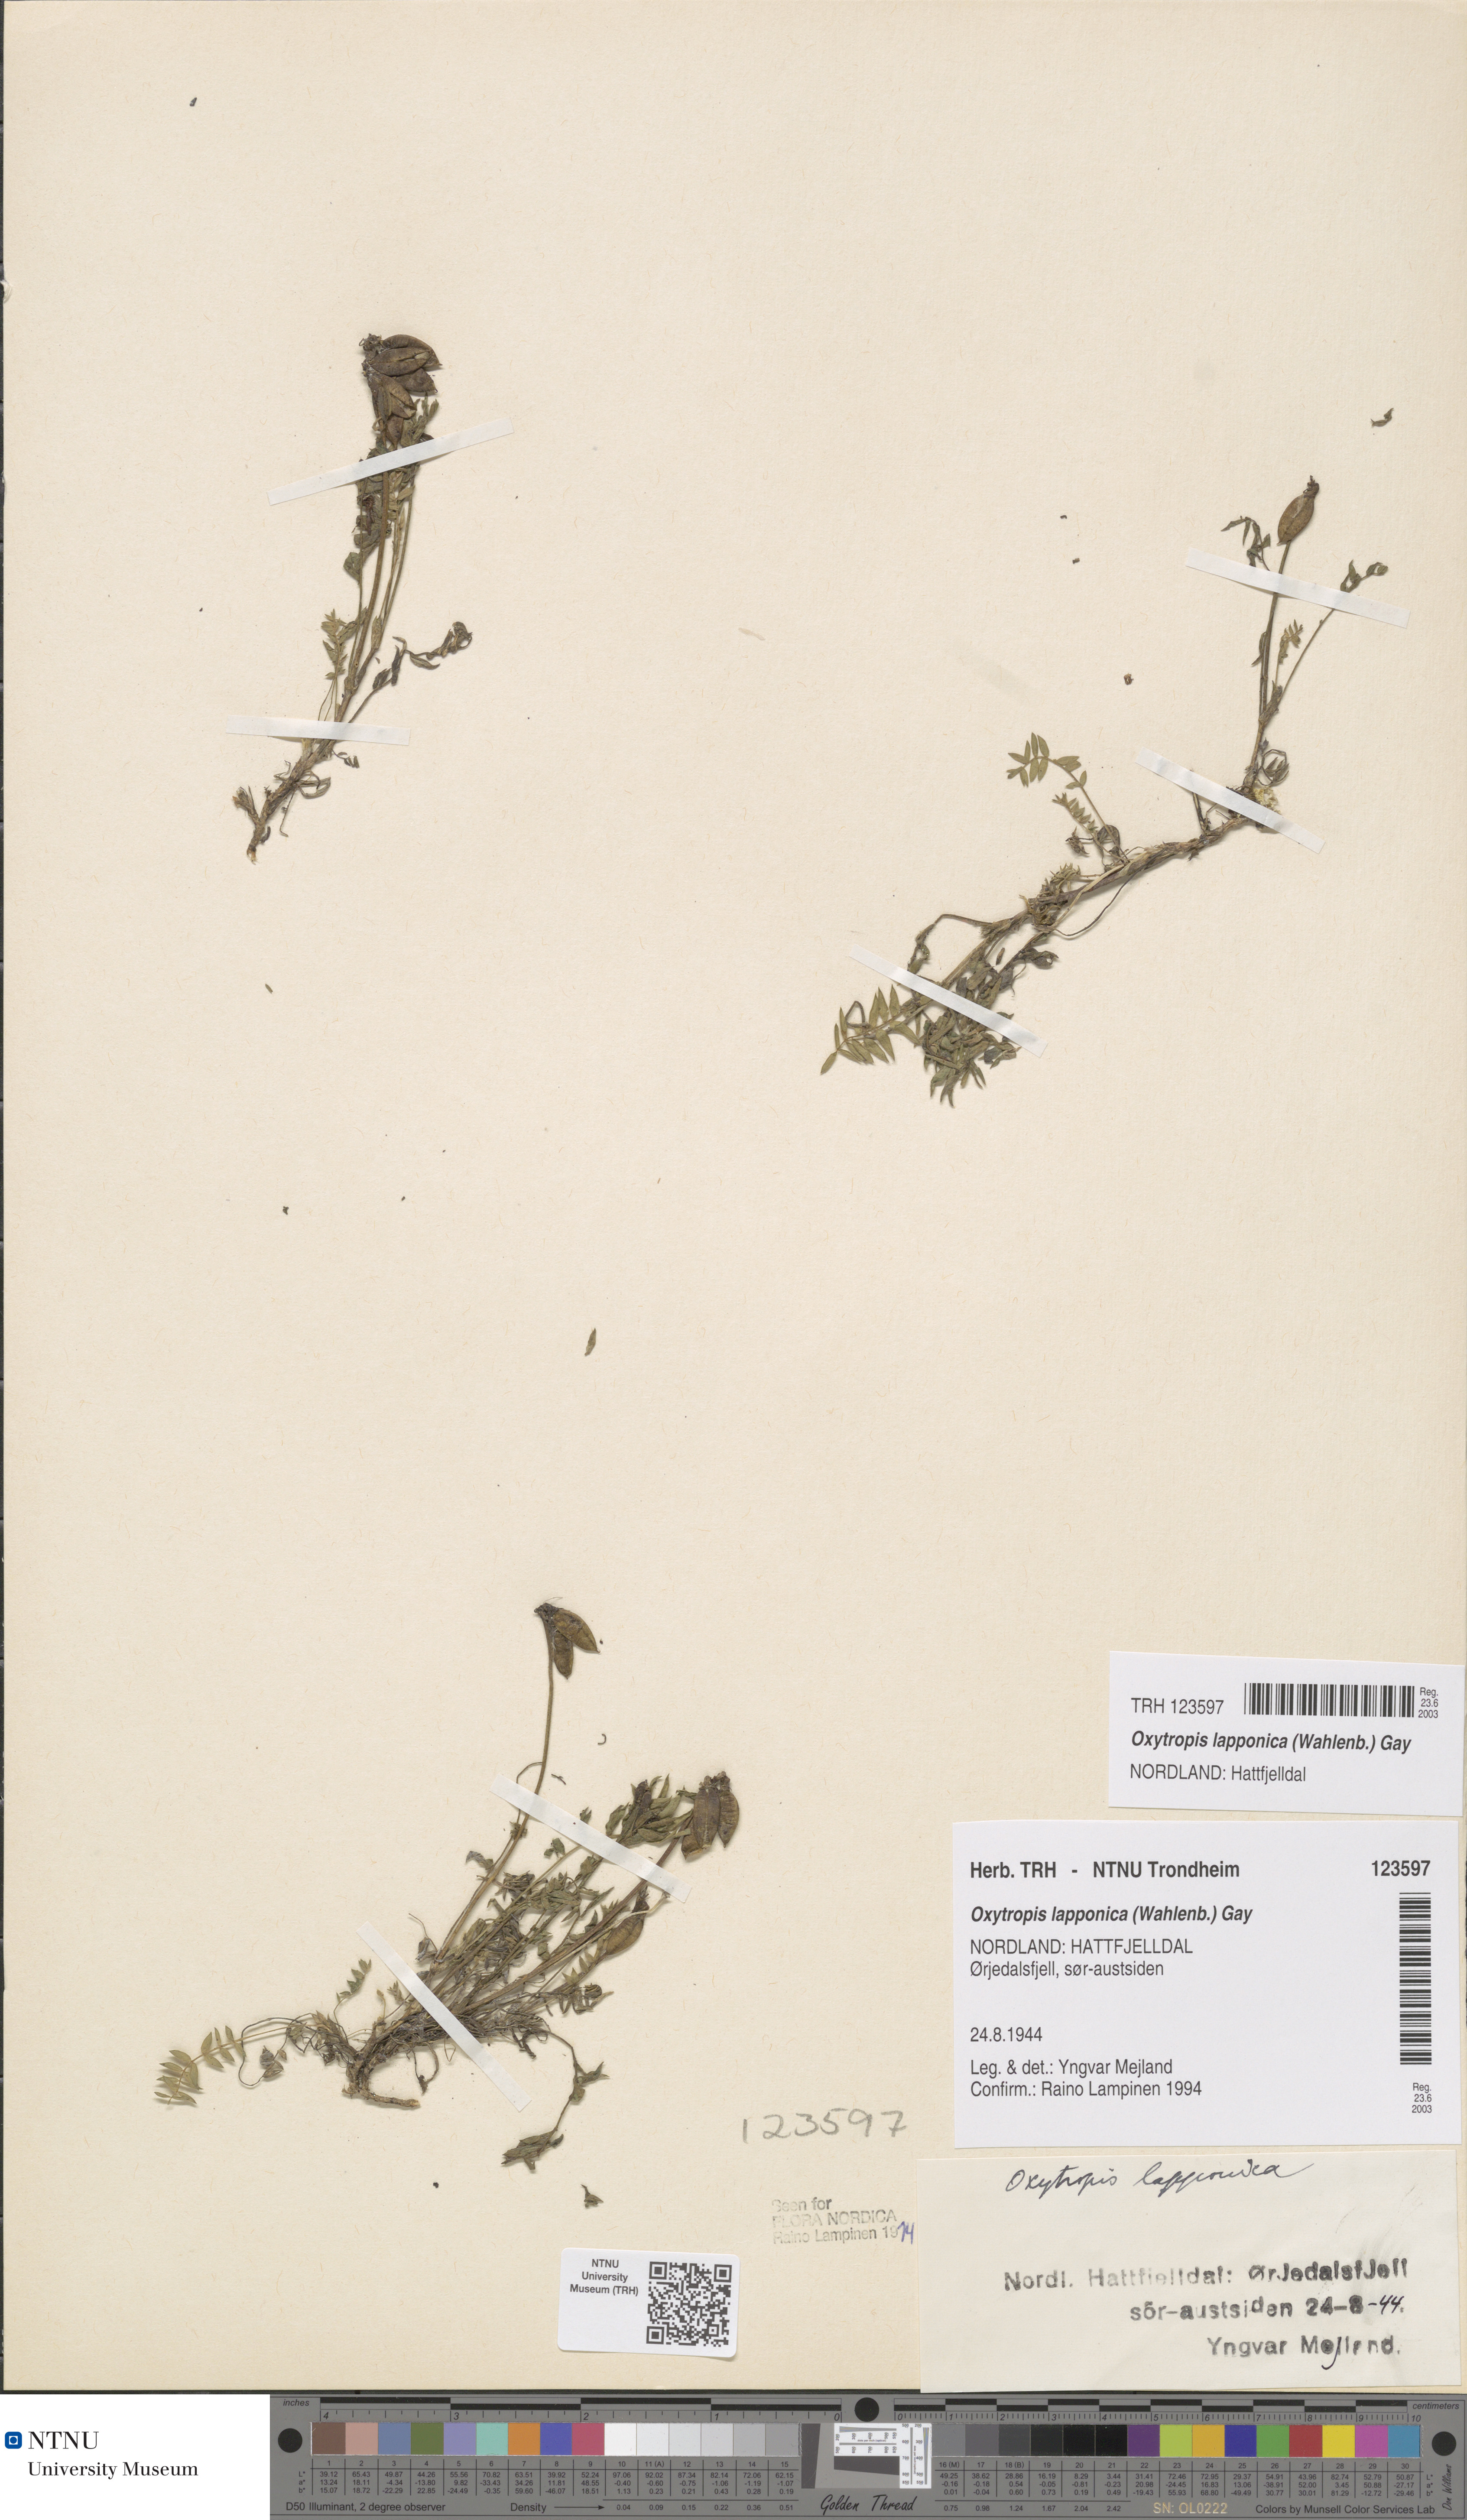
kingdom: Plantae
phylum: Tracheophyta
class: Magnoliopsida
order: Fabales
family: Fabaceae
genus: Oxytropis
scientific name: Oxytropis lapponica
